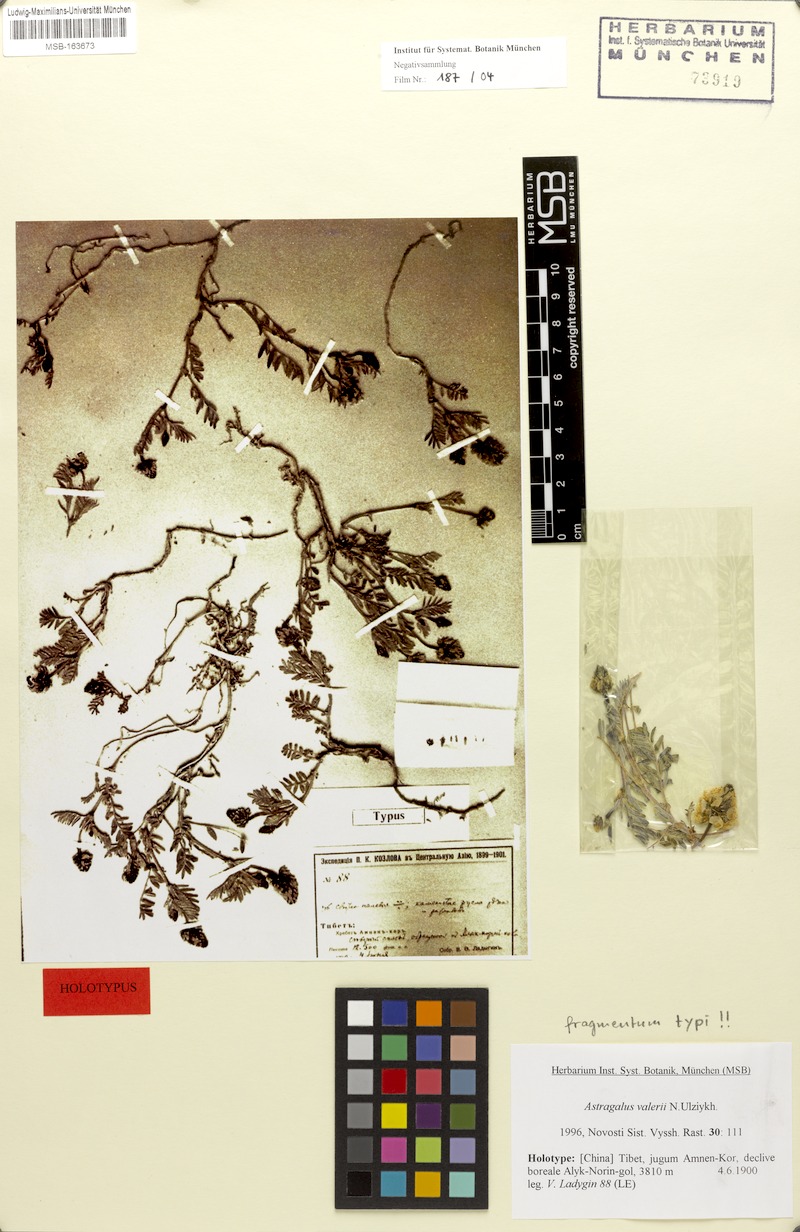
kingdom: Plantae
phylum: Tracheophyta
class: Magnoliopsida
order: Fabales
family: Fabaceae
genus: Astragalus
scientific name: Astragalus valerii
